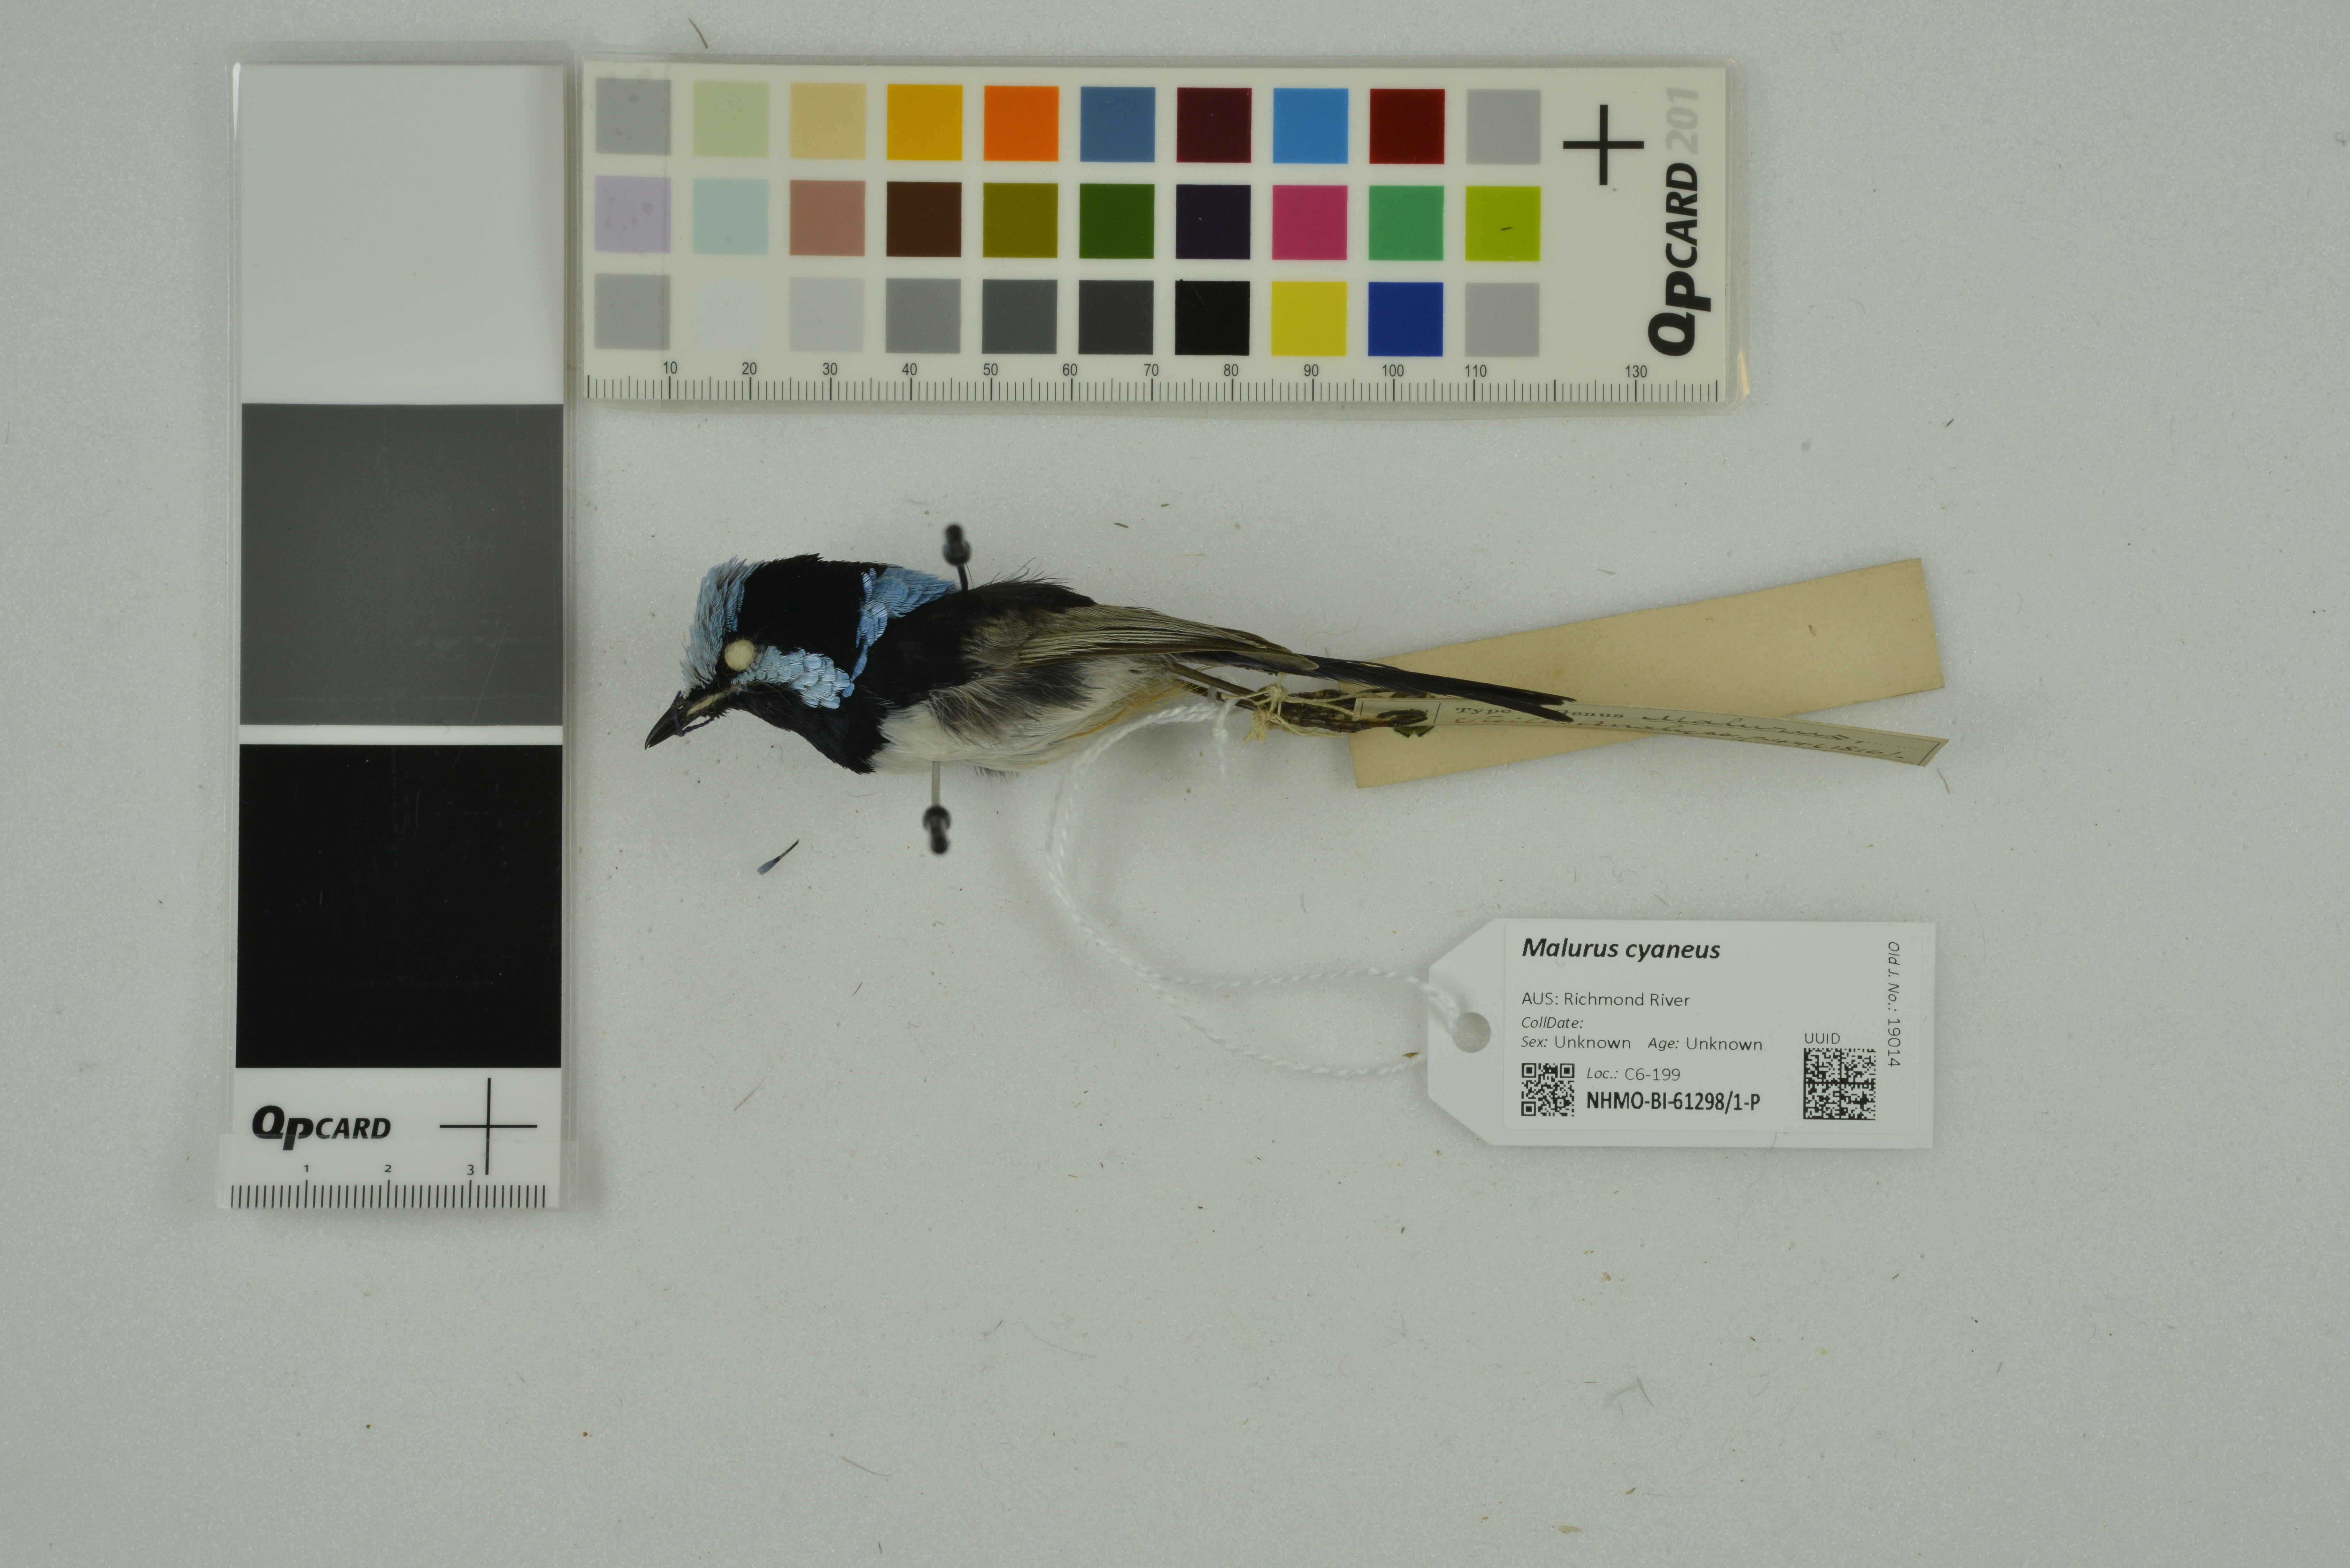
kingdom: Animalia
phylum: Chordata
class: Aves
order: Passeriformes
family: Maluridae
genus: Malurus
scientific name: Malurus cyaneus
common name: Superb fairywren
